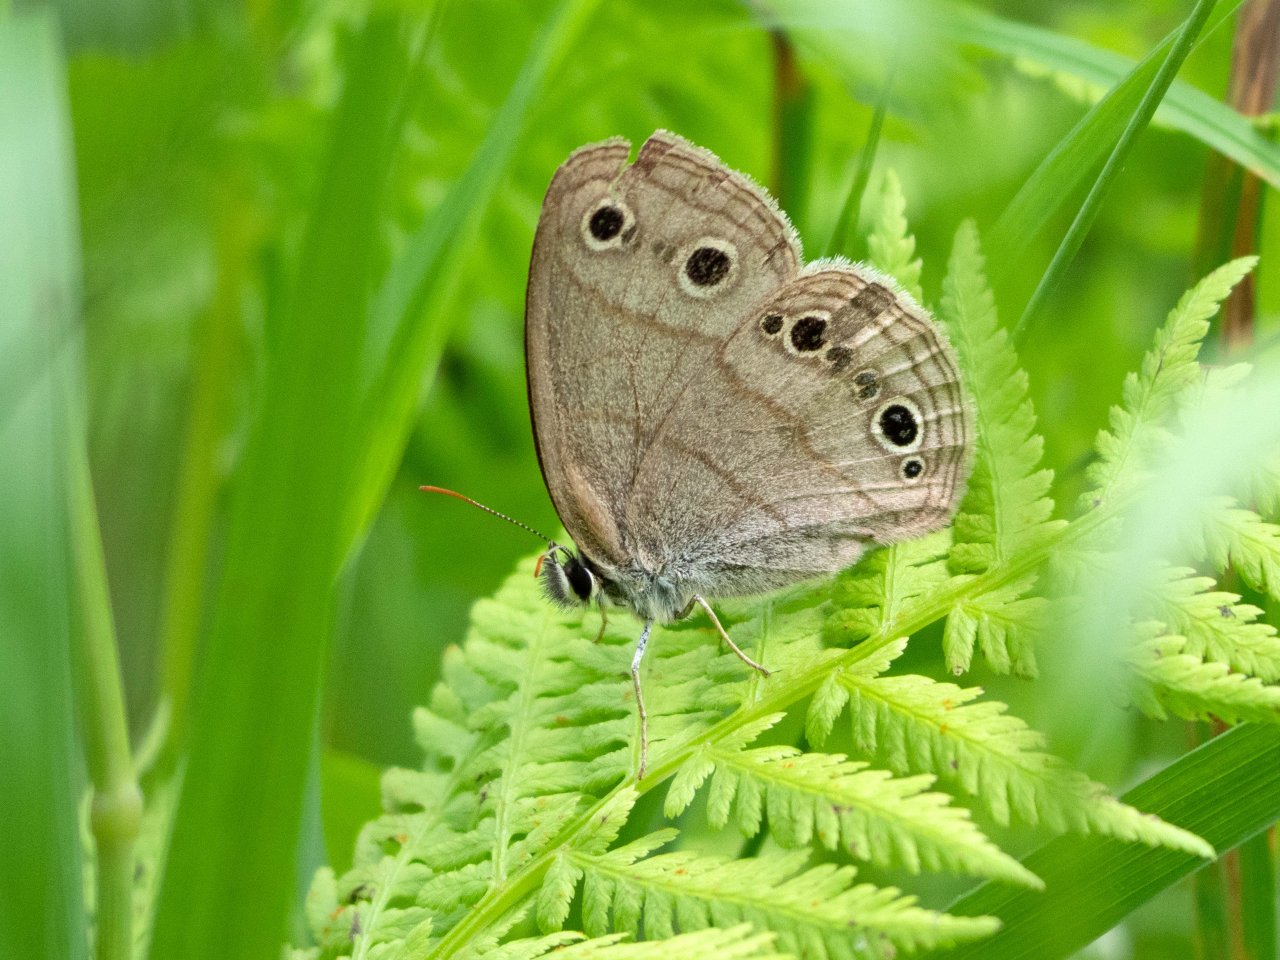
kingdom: Animalia
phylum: Arthropoda
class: Insecta
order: Lepidoptera
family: Nymphalidae
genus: Euptychia
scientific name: Euptychia cymela
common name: Little Wood Satyr
